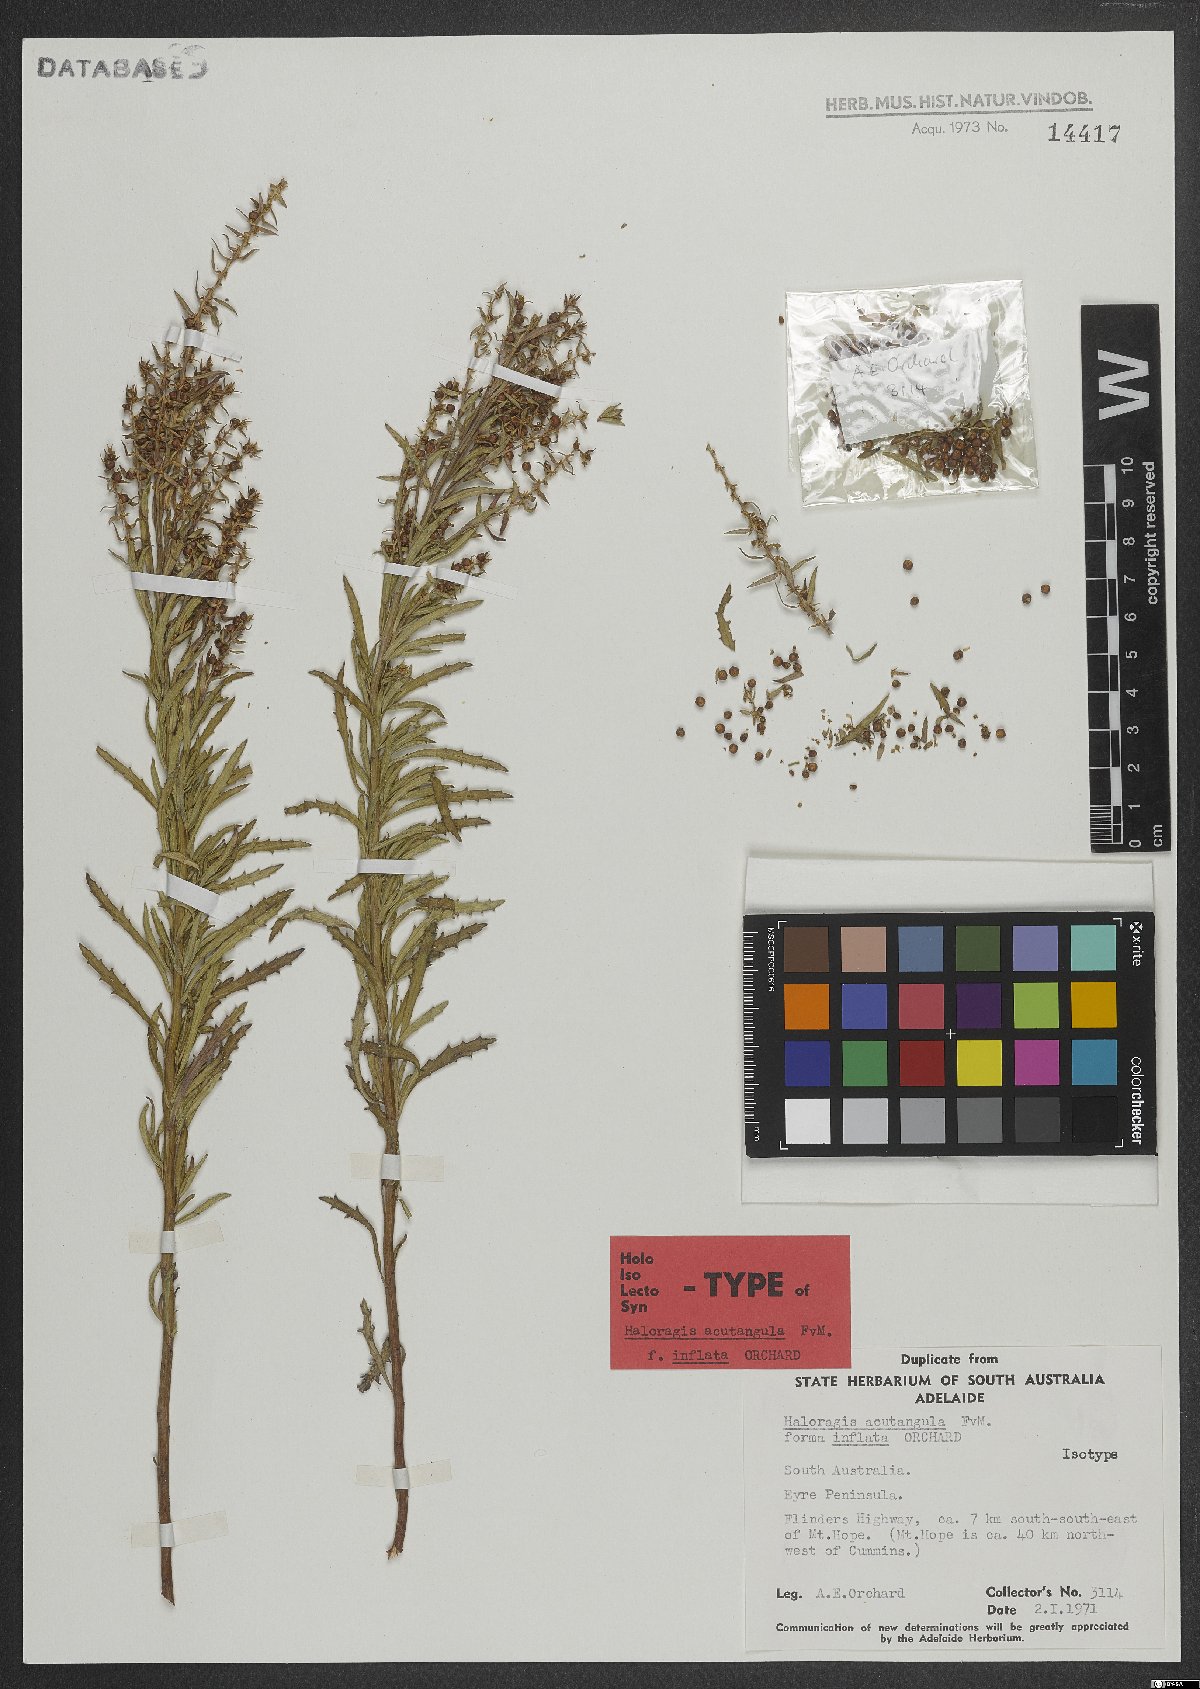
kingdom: Plantae
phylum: Tracheophyta
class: Magnoliopsida
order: Saxifragales
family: Haloragaceae
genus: Haloragis
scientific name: Haloragis acutangula
